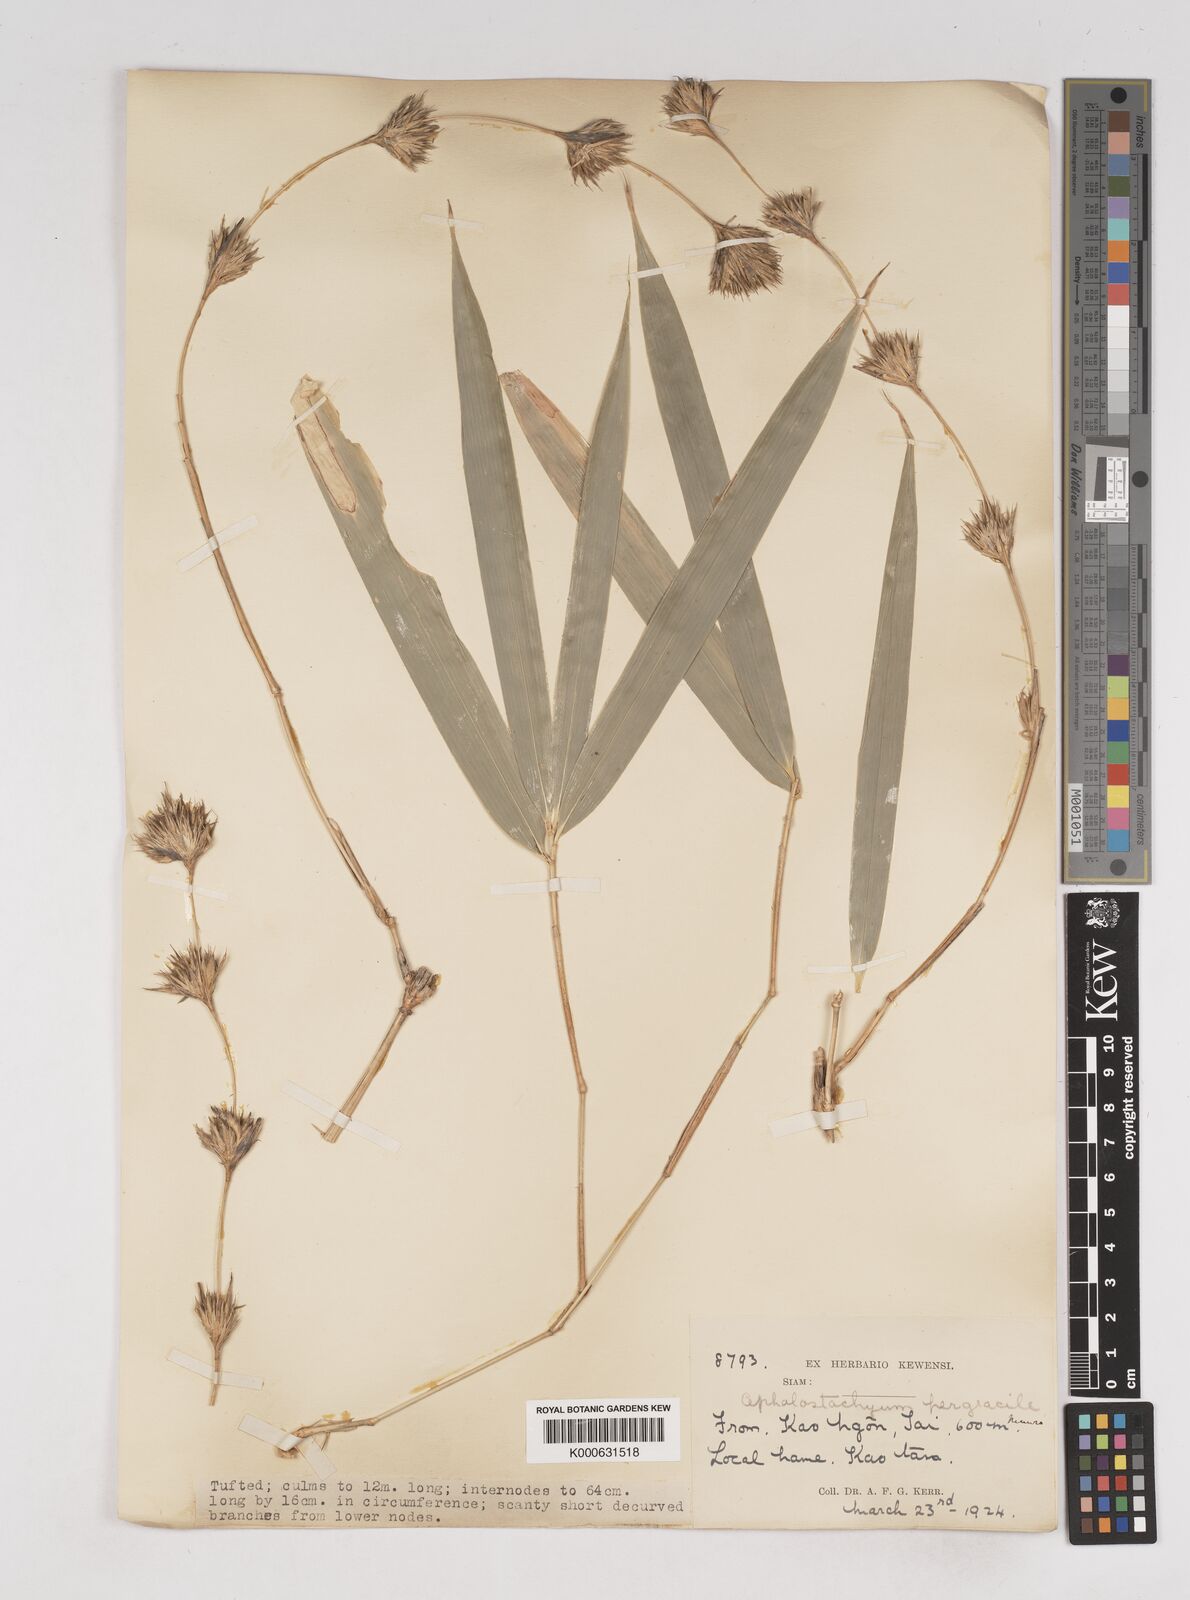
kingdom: Plantae
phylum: Tracheophyta
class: Liliopsida
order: Poales
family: Poaceae
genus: Schizostachyum
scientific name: Schizostachyum pergracile
